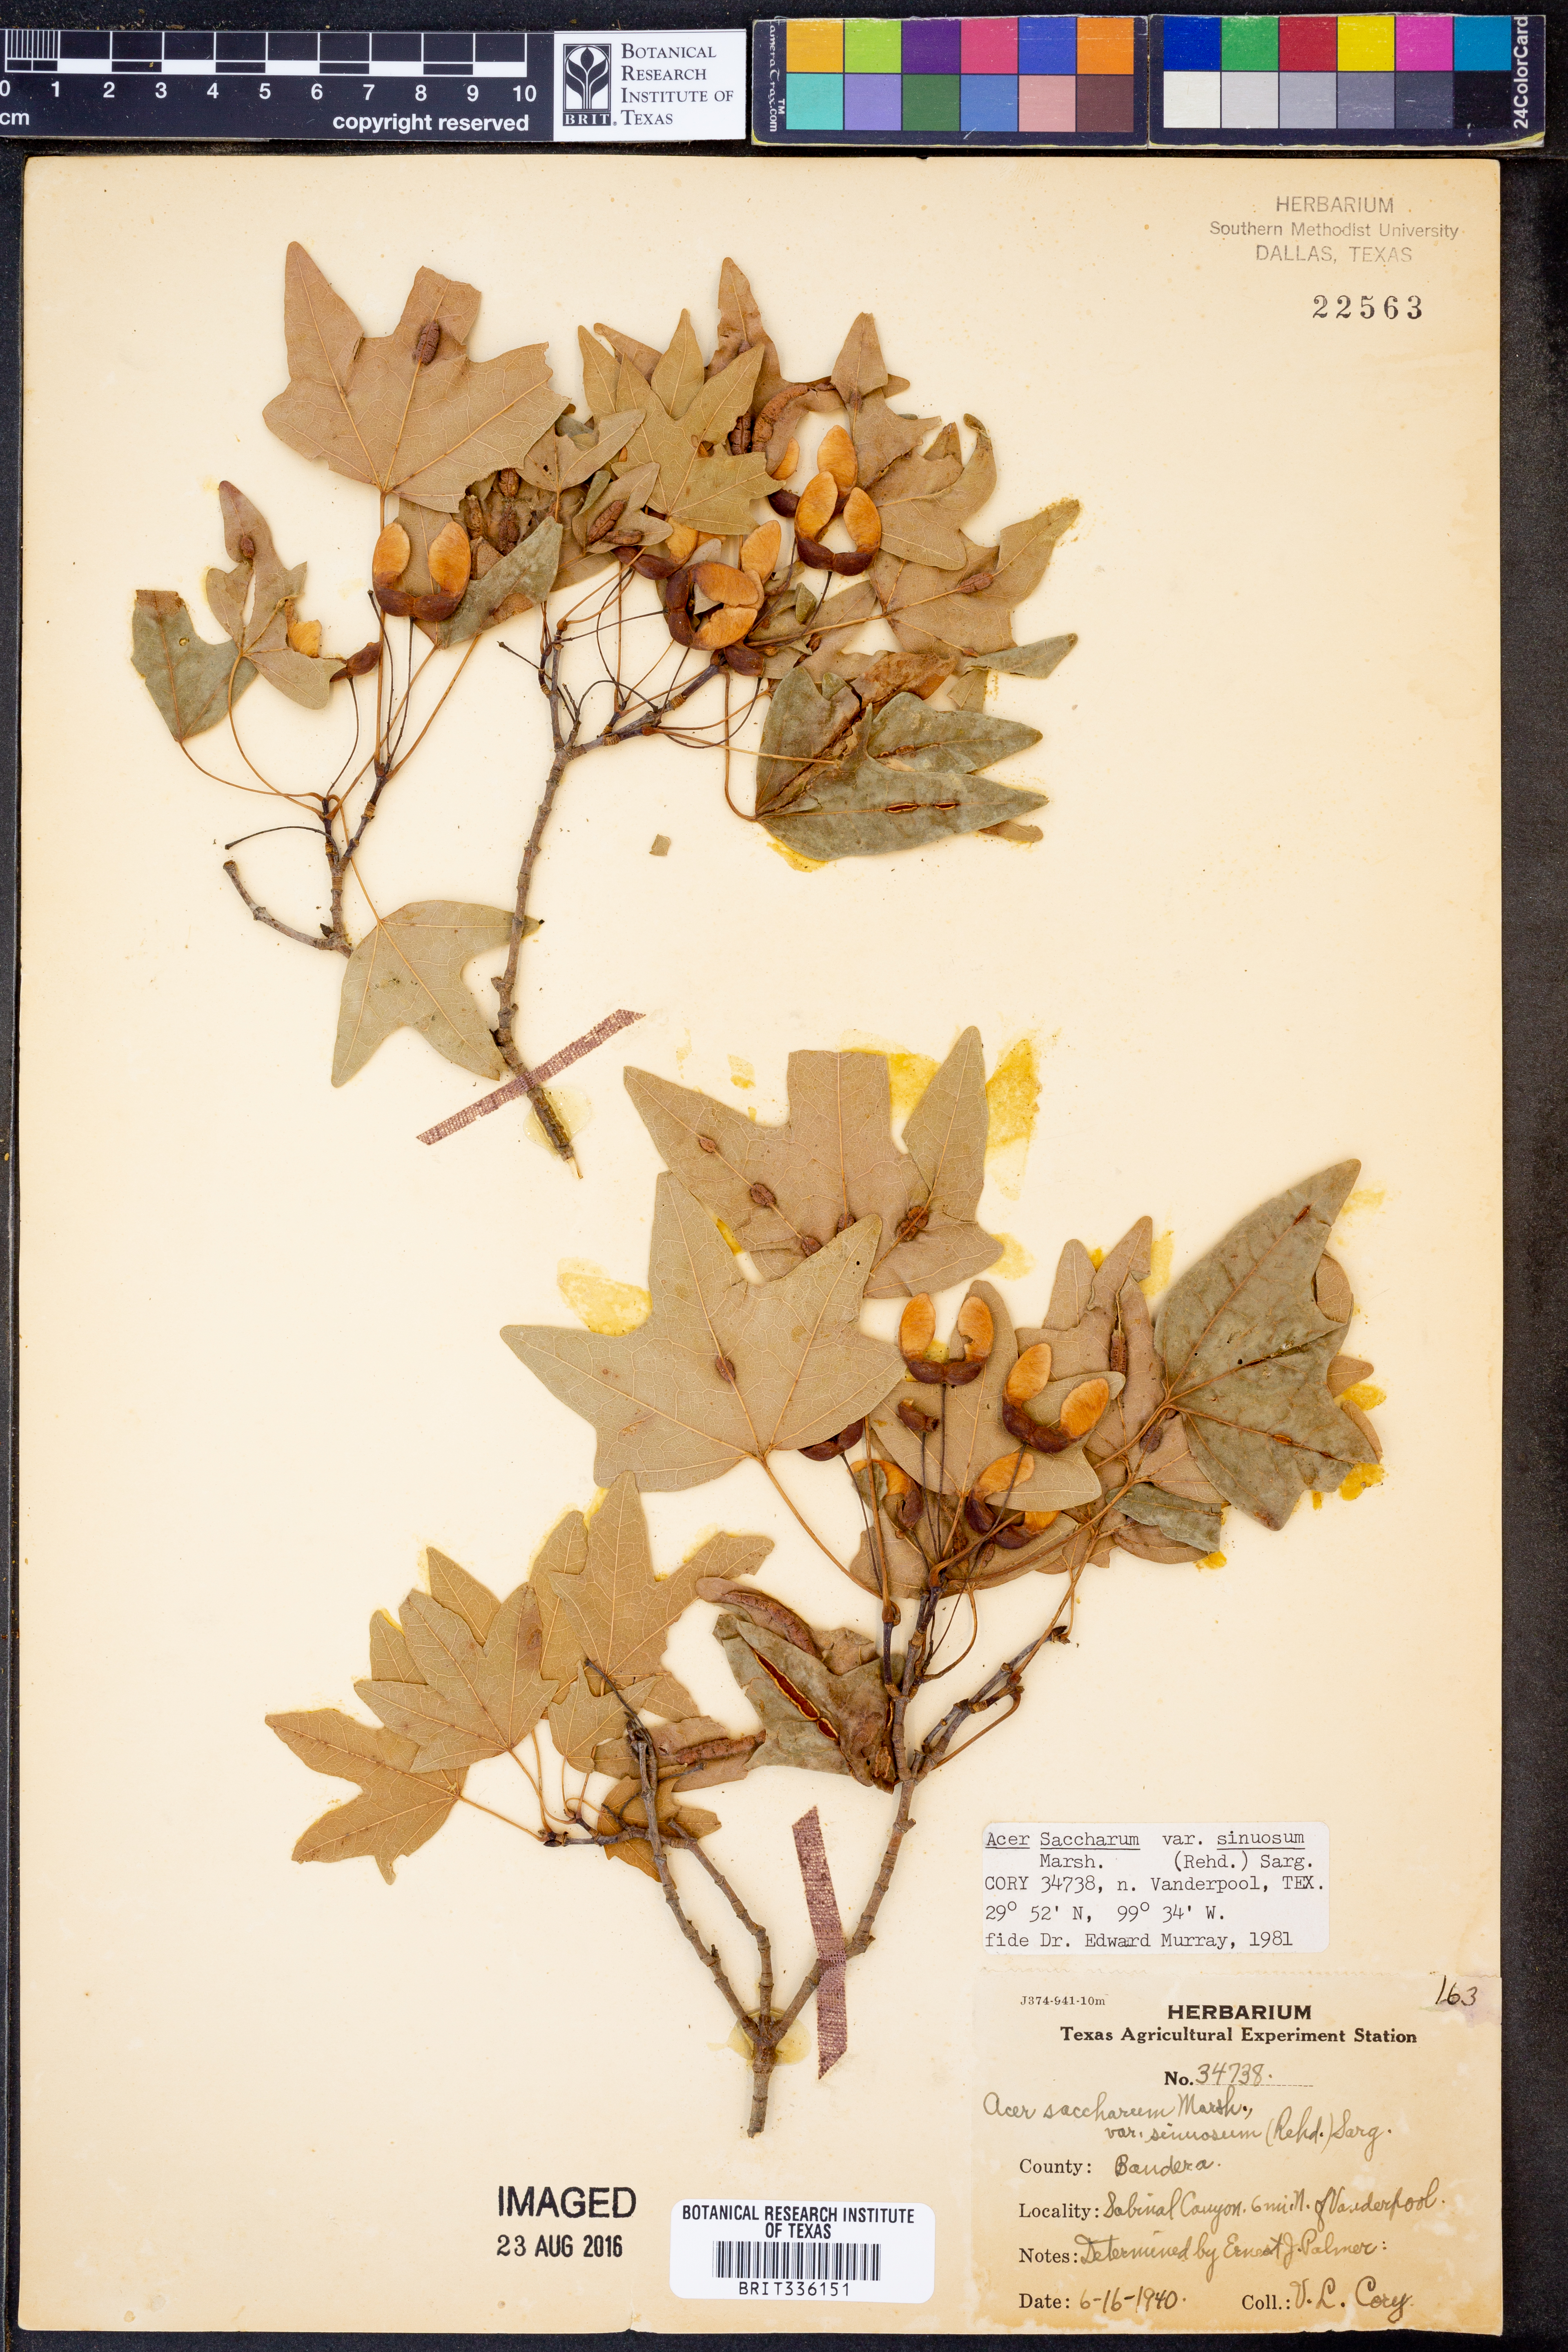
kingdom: Plantae
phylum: Tracheophyta
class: Magnoliopsida
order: Sapindales
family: Sapindaceae
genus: Acer
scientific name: Acer grandidentatum
